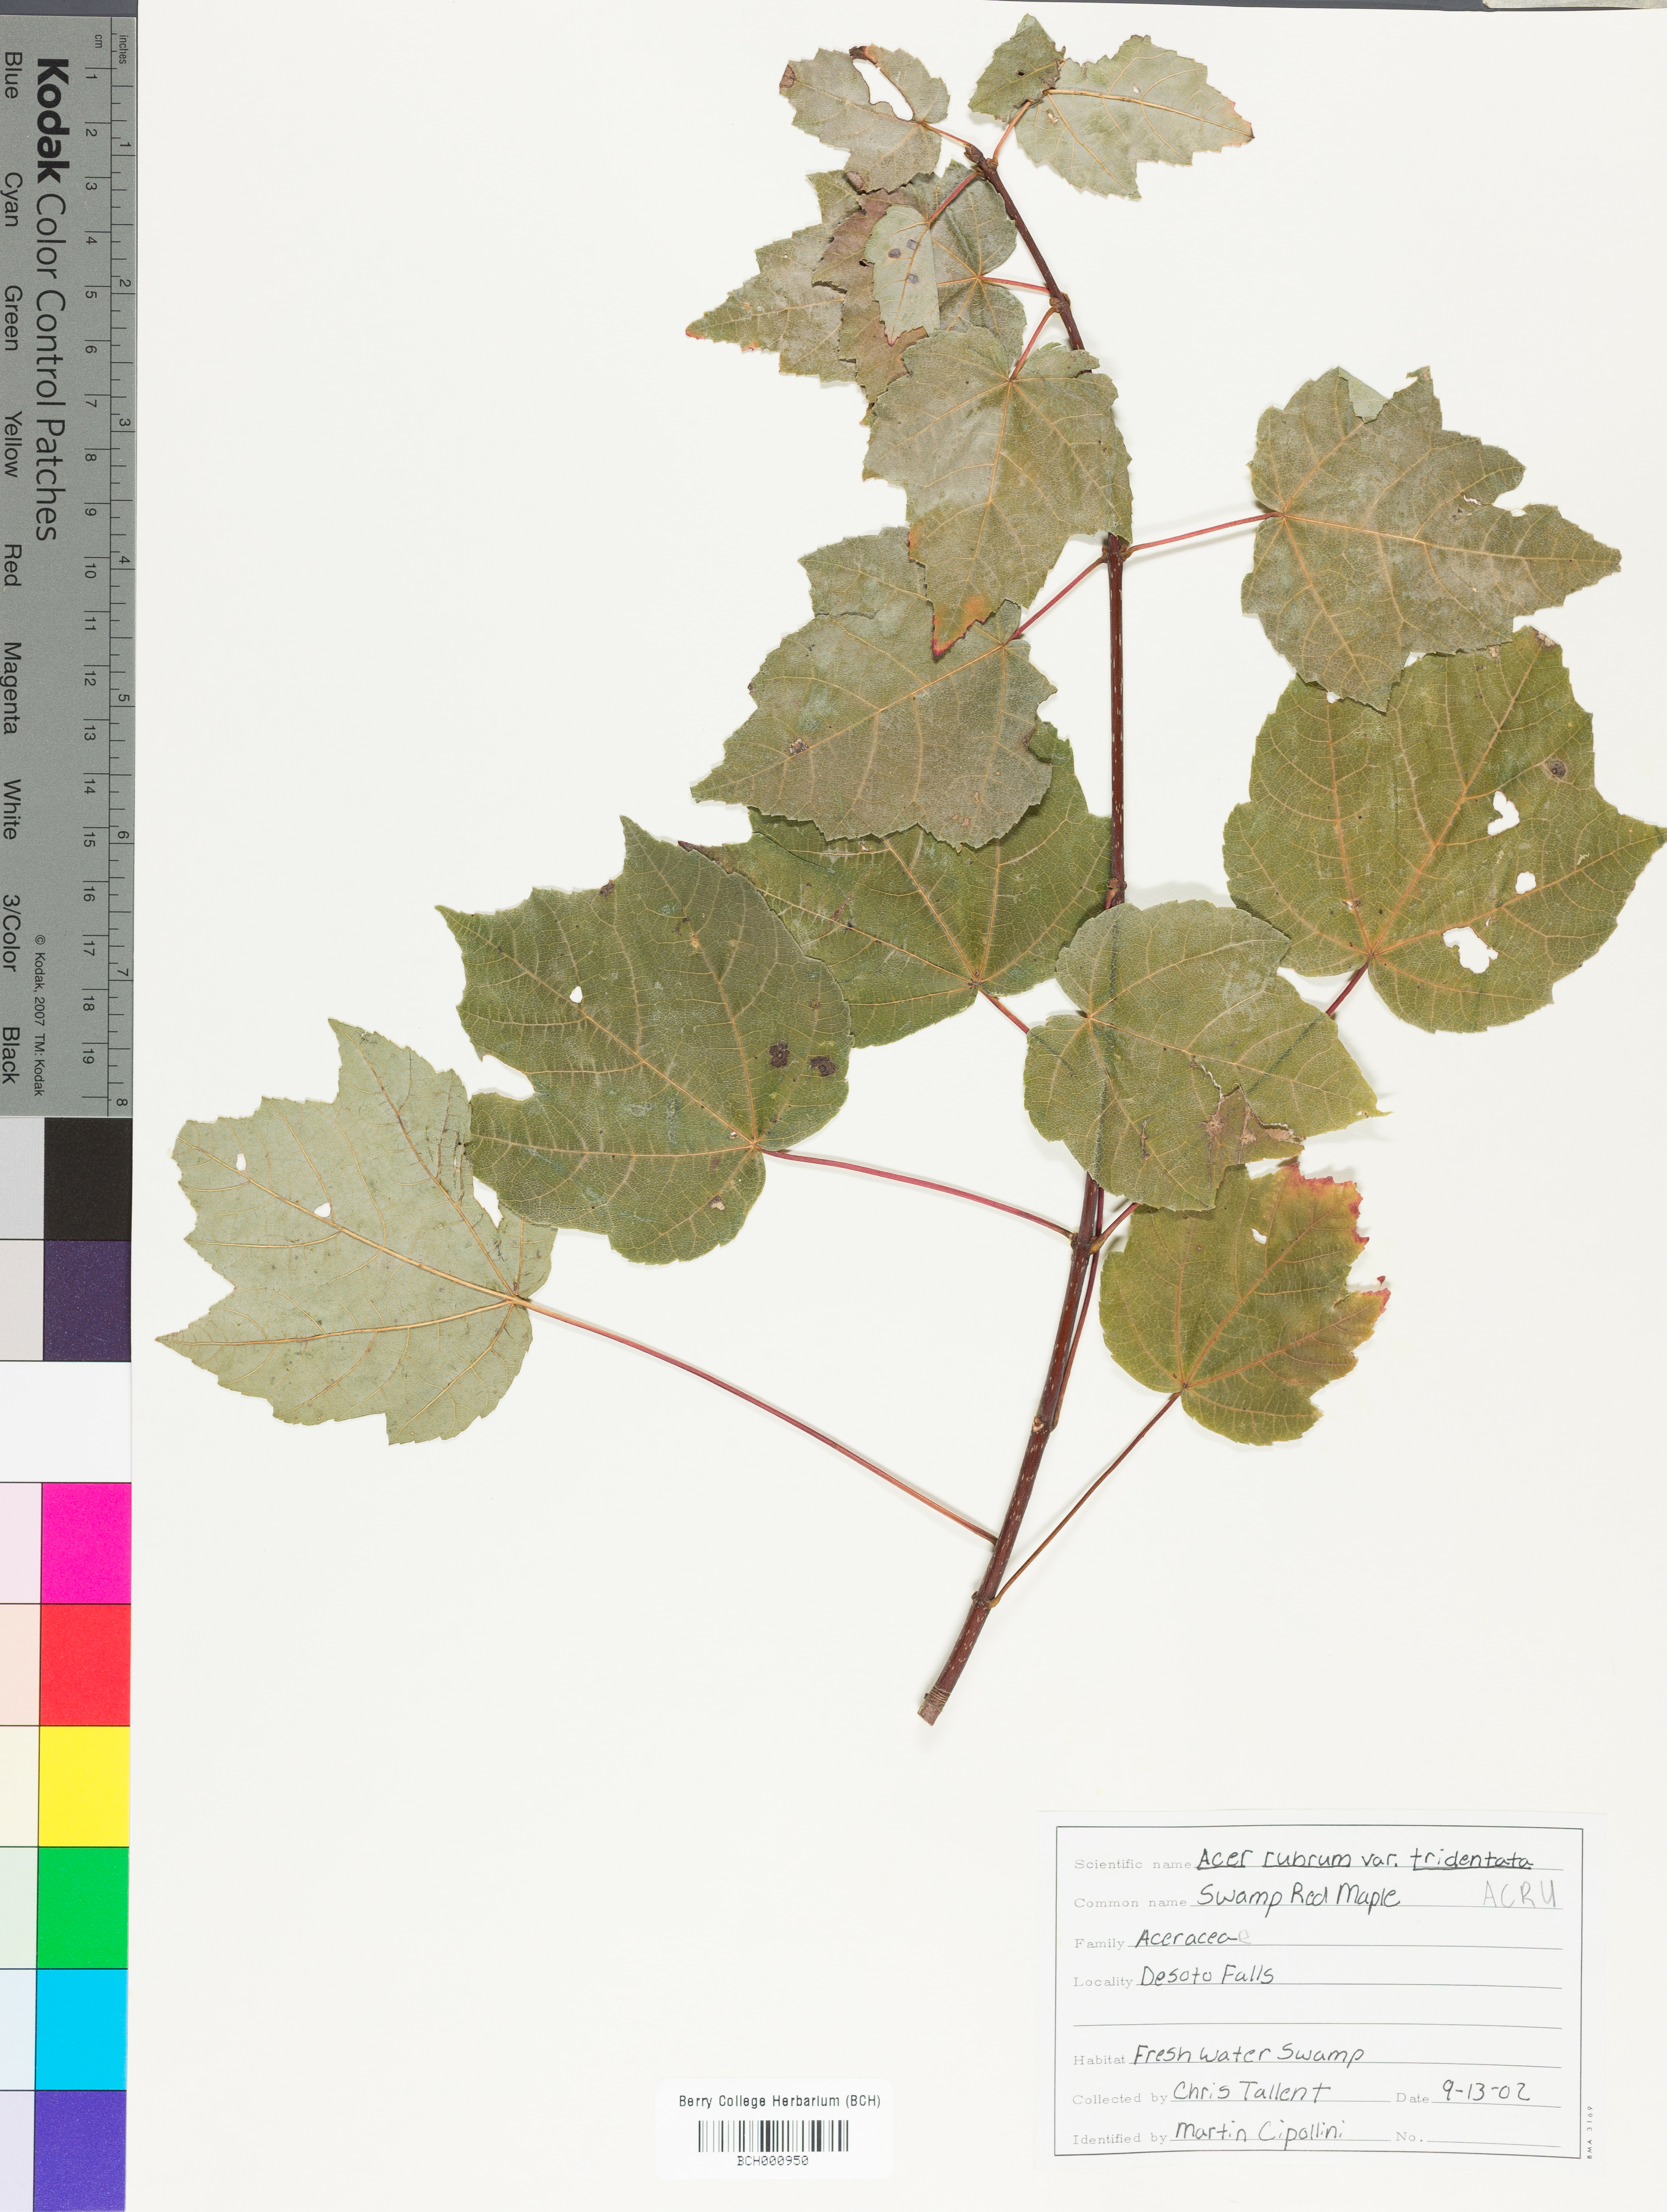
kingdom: Plantae
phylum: Tracheophyta
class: Magnoliopsida
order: Sapindales
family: Sapindaceae
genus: Acer
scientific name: Acer rubrum
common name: Red maple
